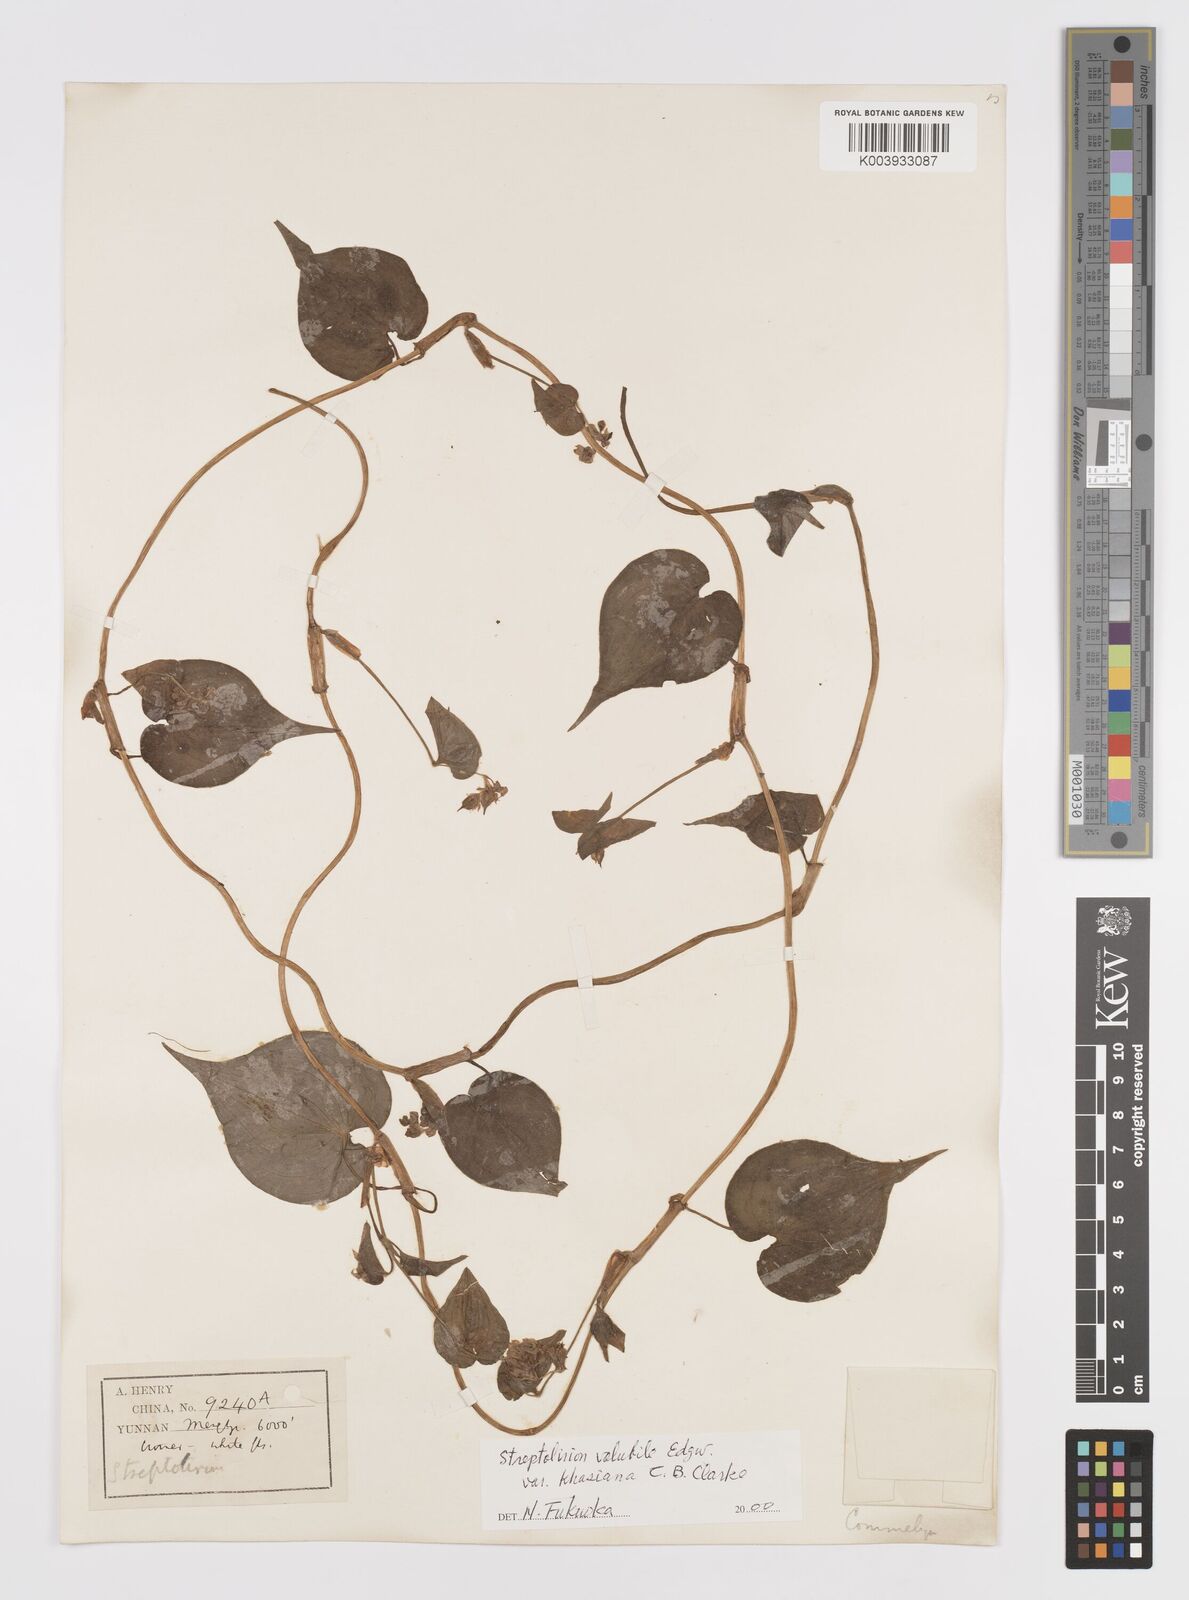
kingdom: Plantae
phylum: Tracheophyta
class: Liliopsida
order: Commelinales
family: Commelinaceae
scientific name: Commelinaceae
